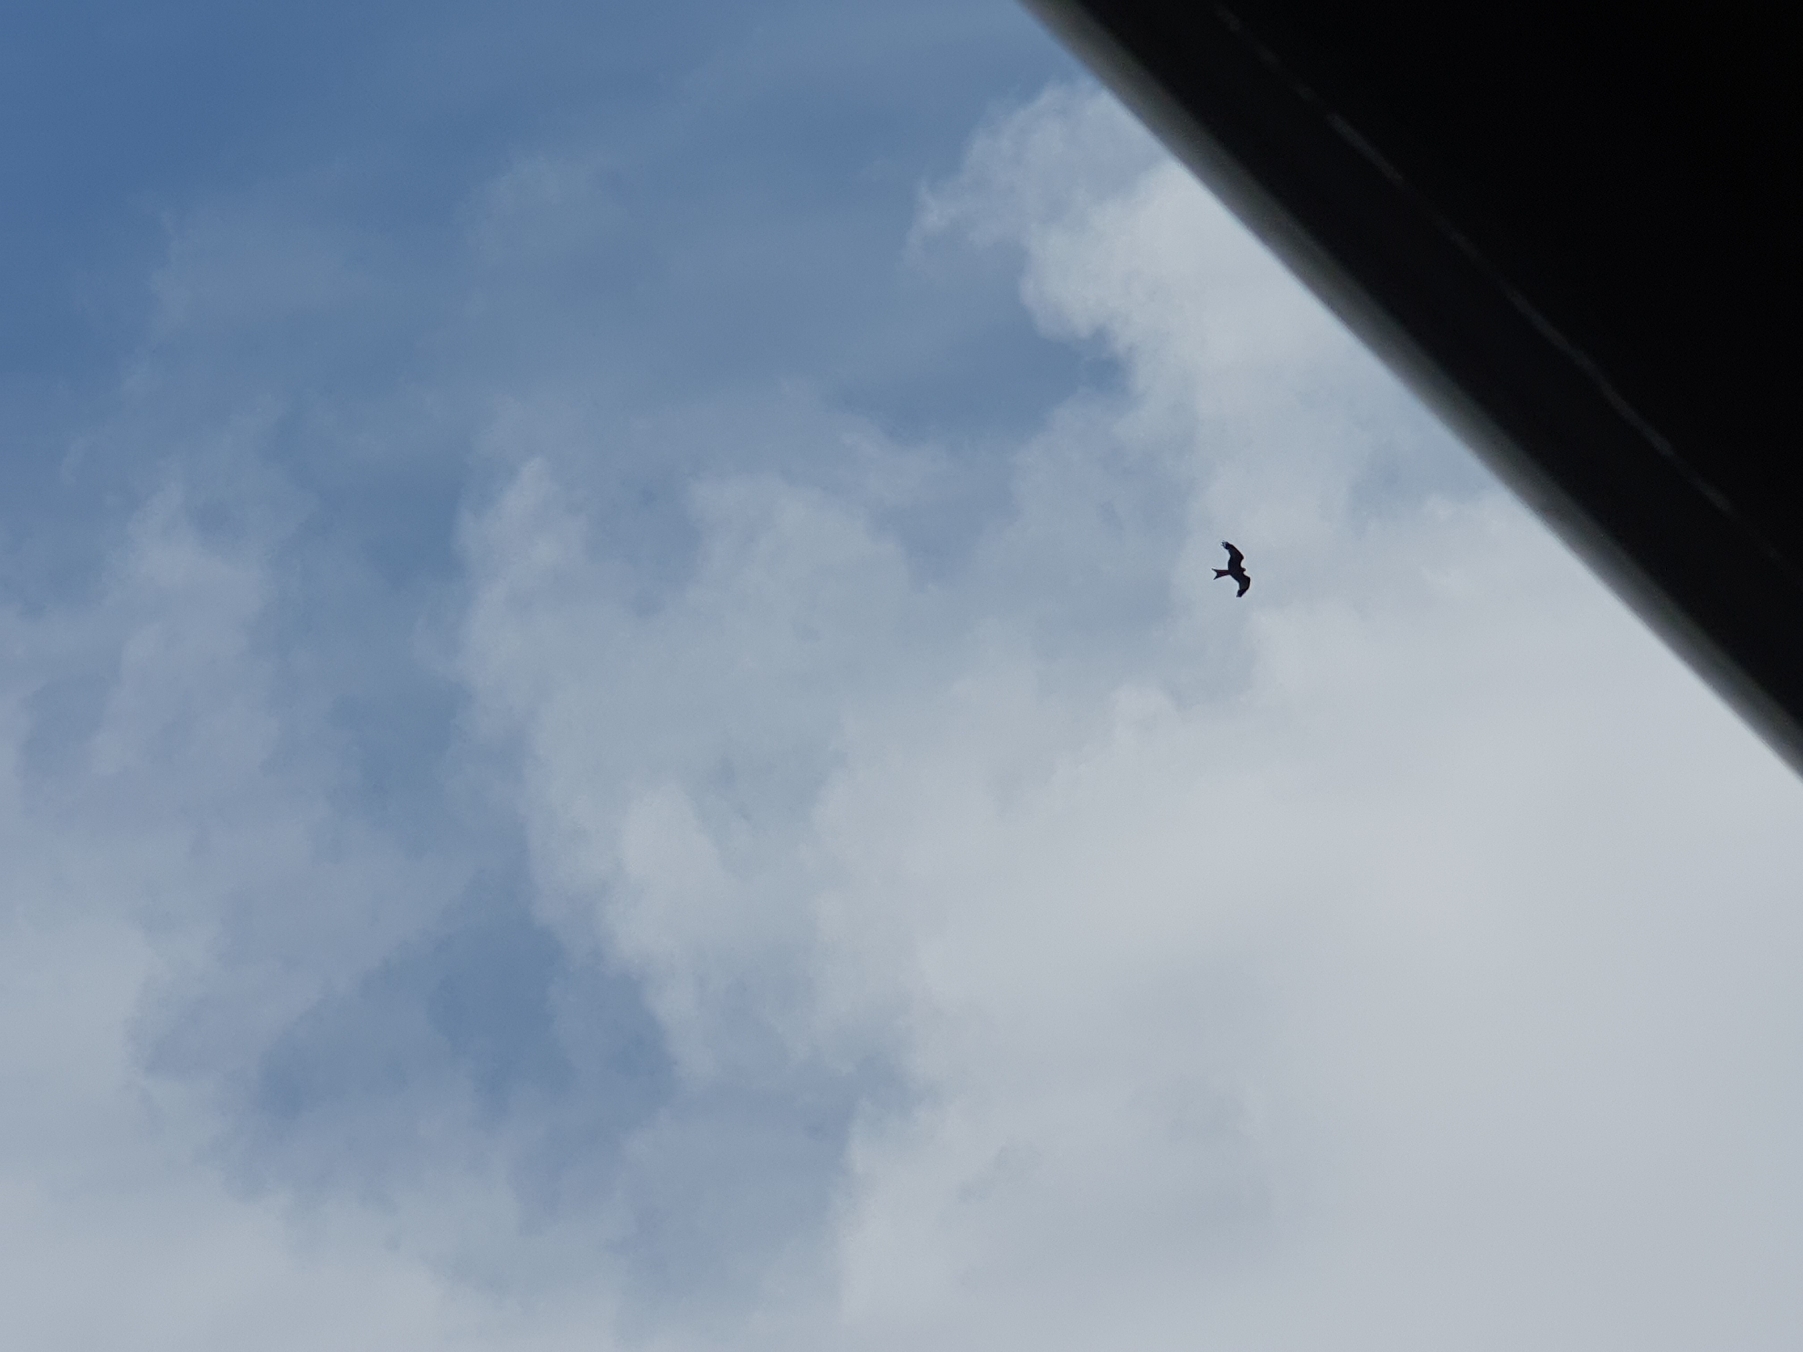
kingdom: Animalia
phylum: Chordata
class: Aves
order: Accipitriformes
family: Accipitridae
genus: Milvus
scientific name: Milvus milvus
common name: Rød glente
